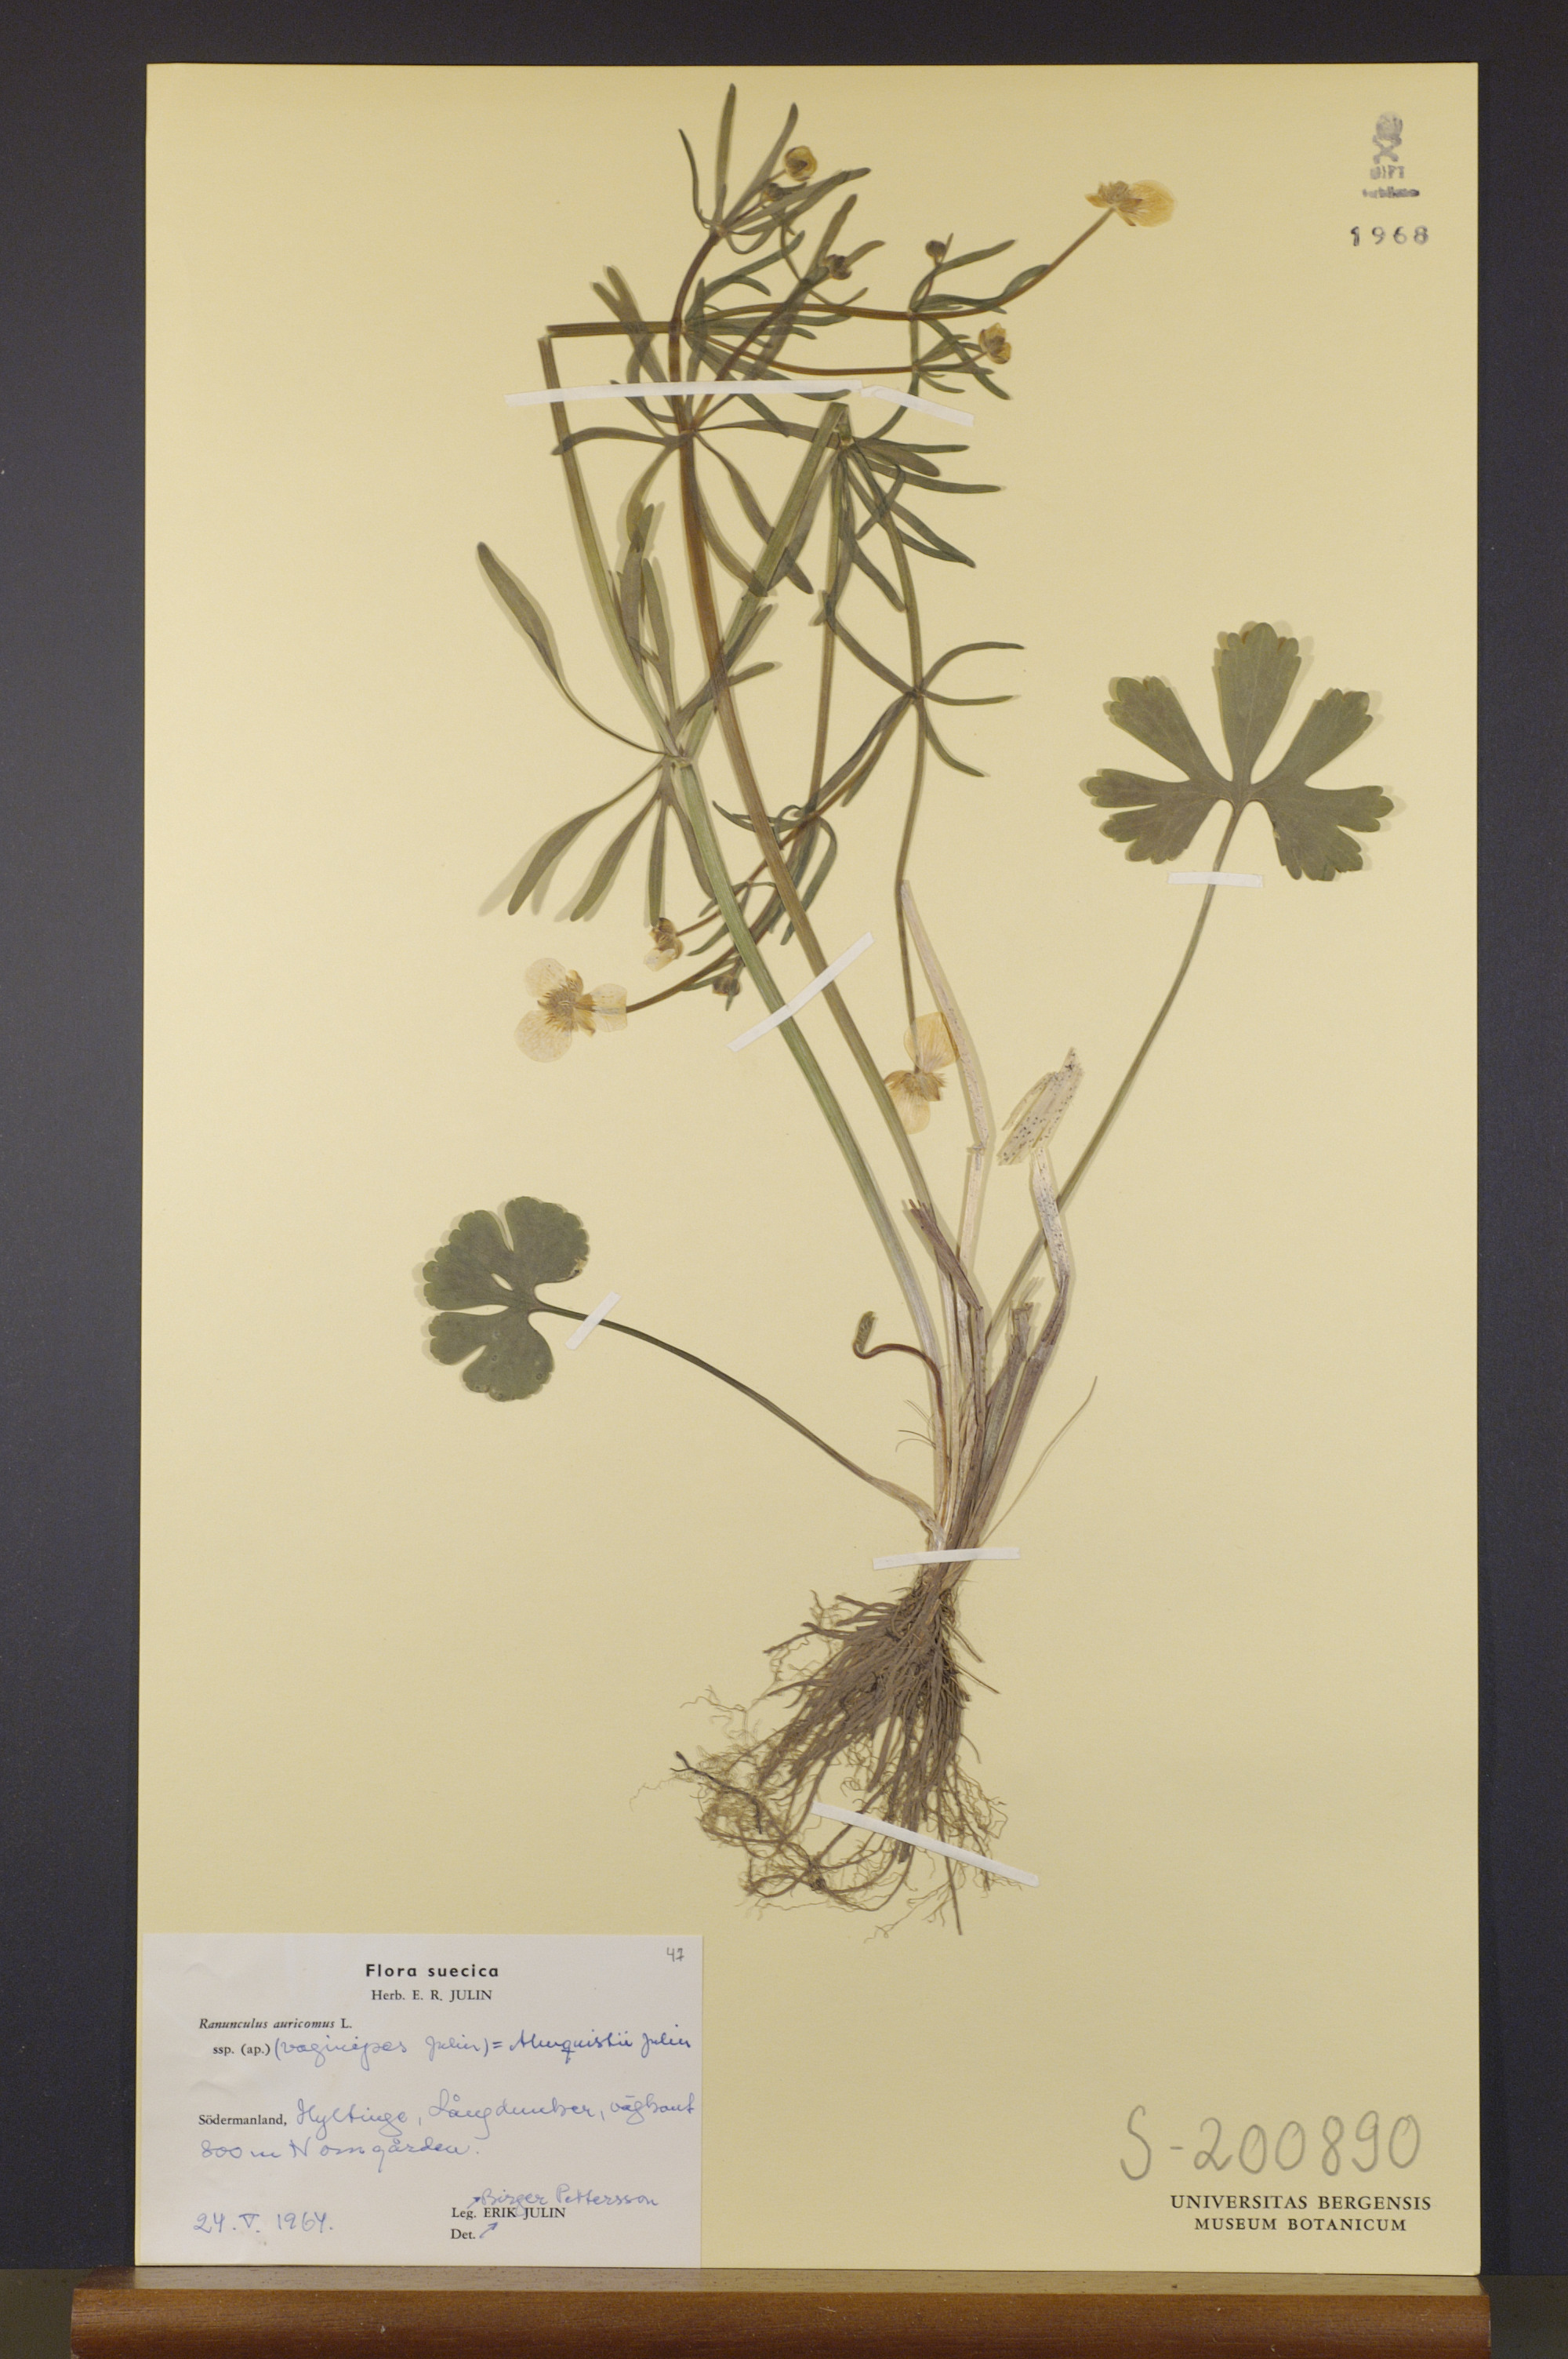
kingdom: Plantae
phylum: Tracheophyta
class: Magnoliopsida
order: Ranunculales
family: Ranunculaceae
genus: Ranunculus
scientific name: Ranunculus almquistii
